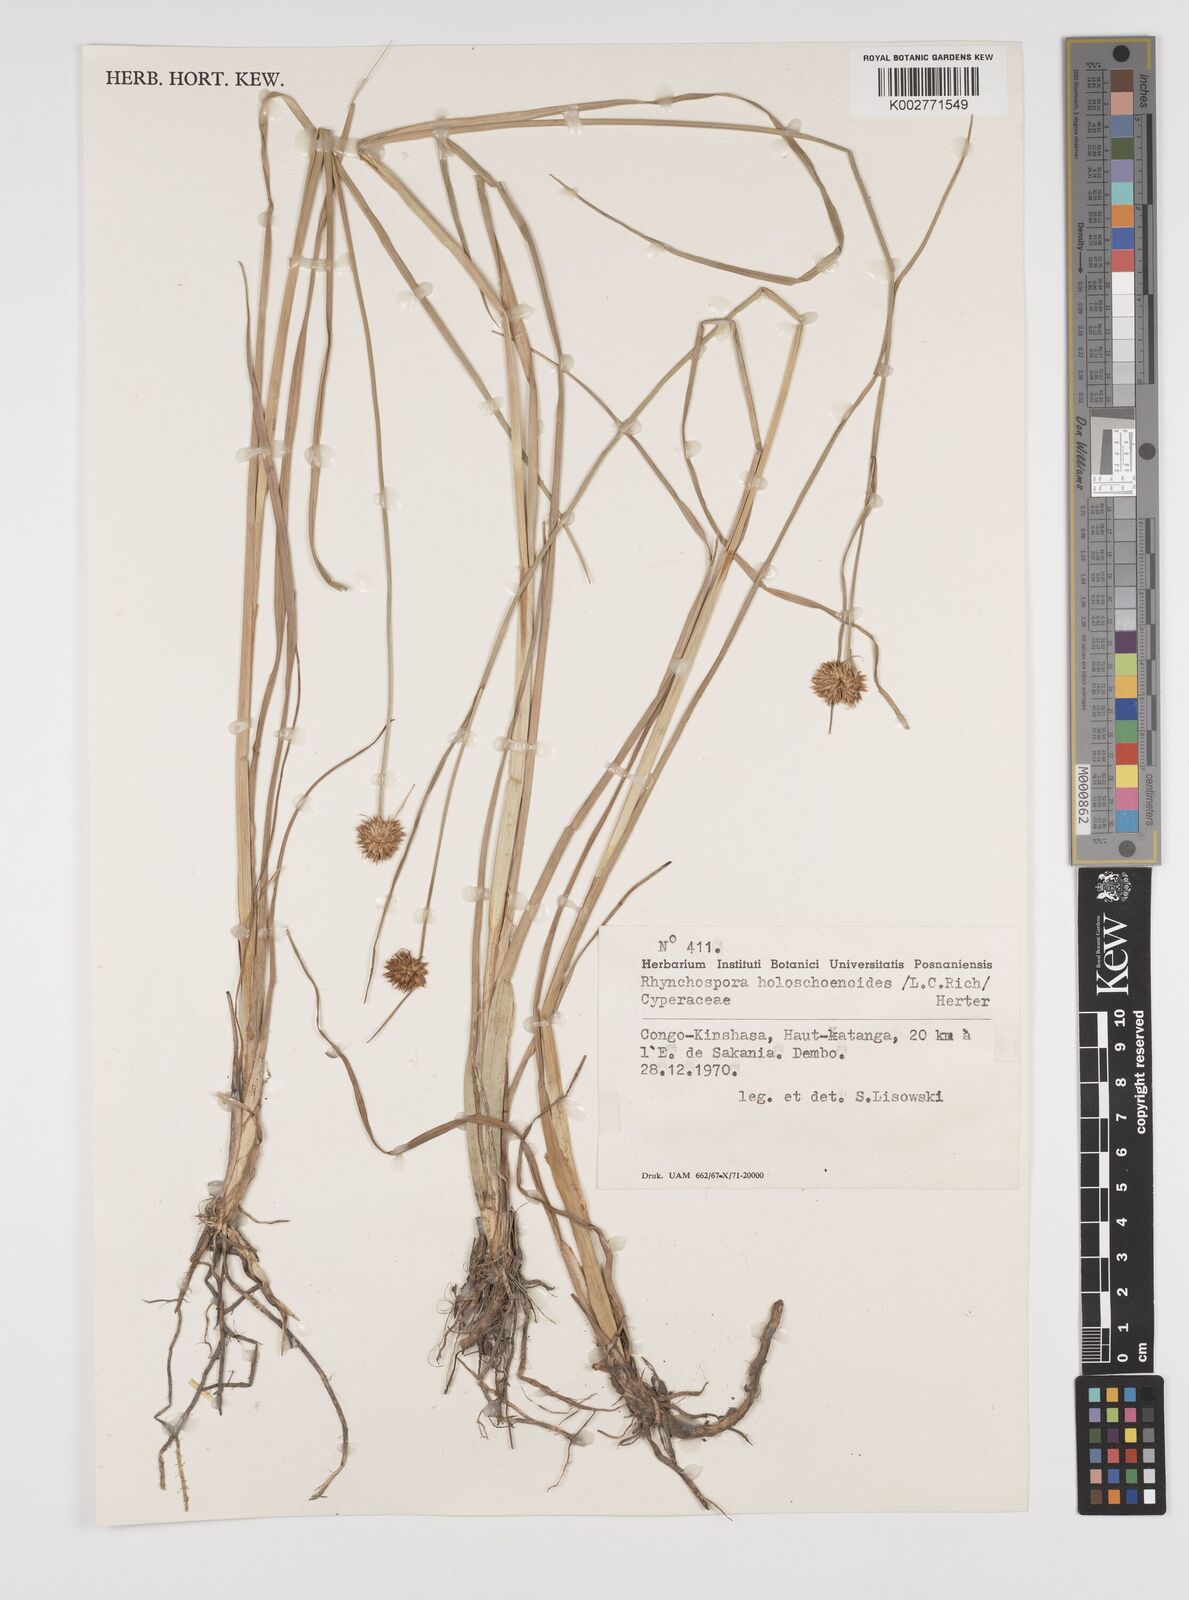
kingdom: Plantae
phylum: Tracheophyta
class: Liliopsida
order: Poales
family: Cyperaceae
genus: Rhynchospora
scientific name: Rhynchospora holoschoenoides
